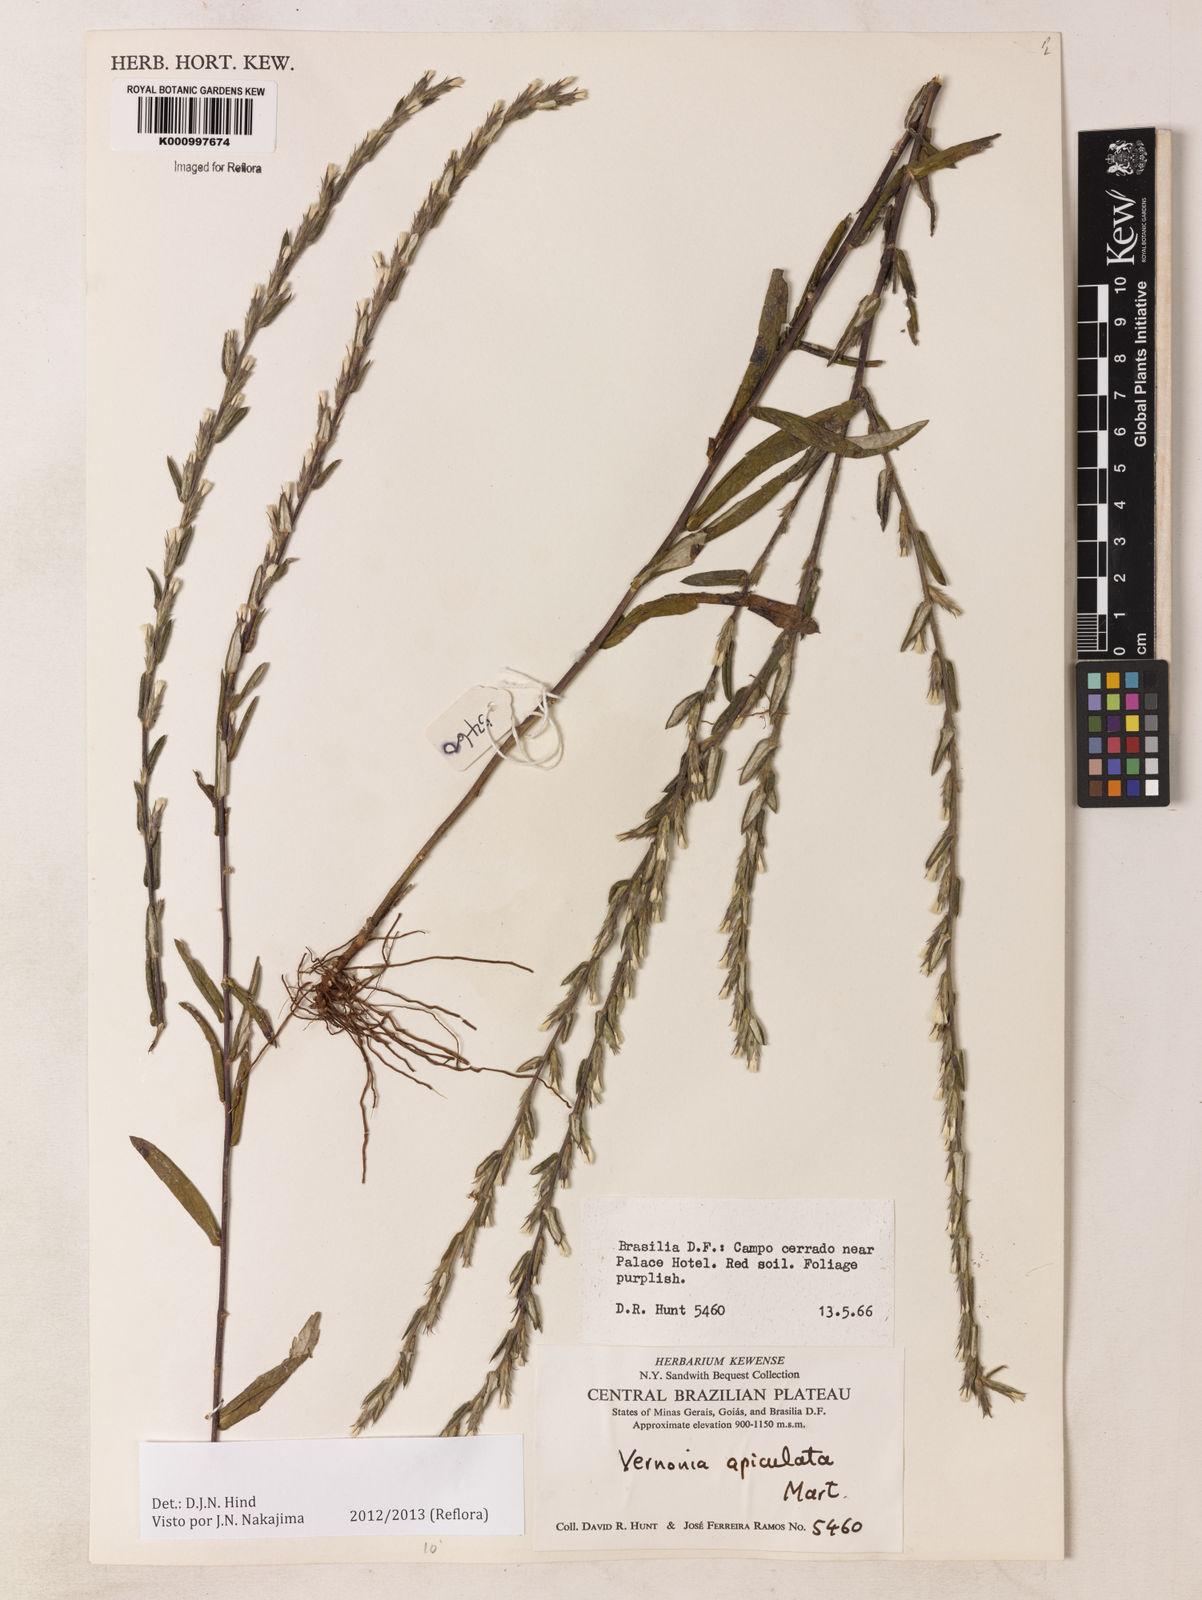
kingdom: Plantae
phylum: Tracheophyta
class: Magnoliopsida
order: Asterales
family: Asteraceae
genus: Stenocephalum
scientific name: Stenocephalum apiculatum
